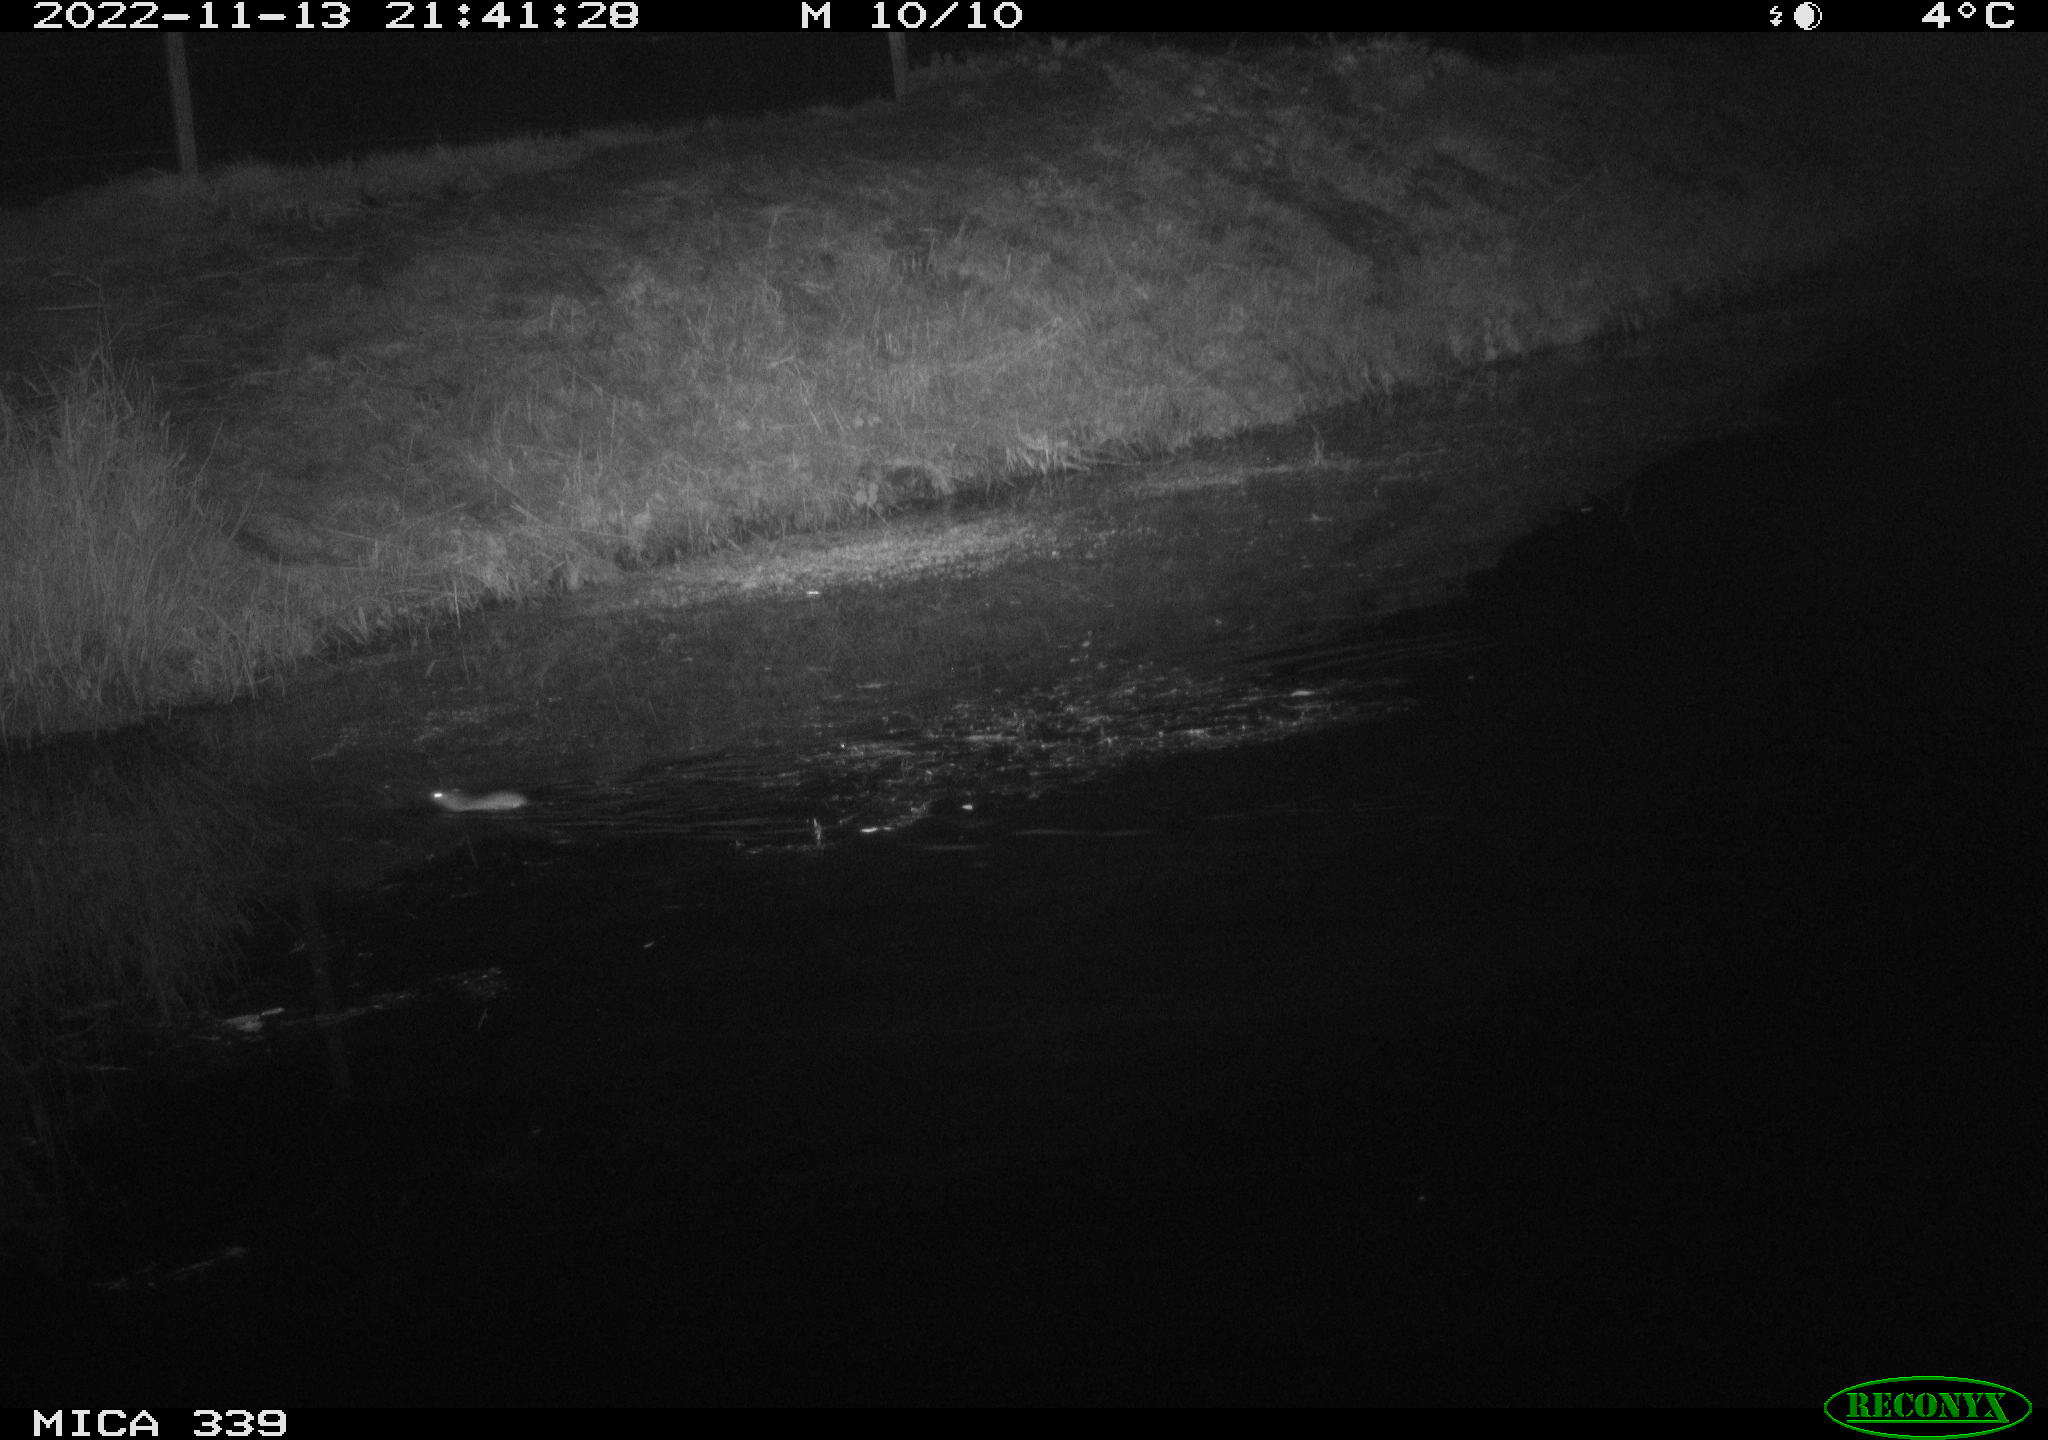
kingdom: Animalia
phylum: Chordata
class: Mammalia
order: Rodentia
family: Muridae
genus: Rattus
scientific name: Rattus norvegicus
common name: Brown rat
